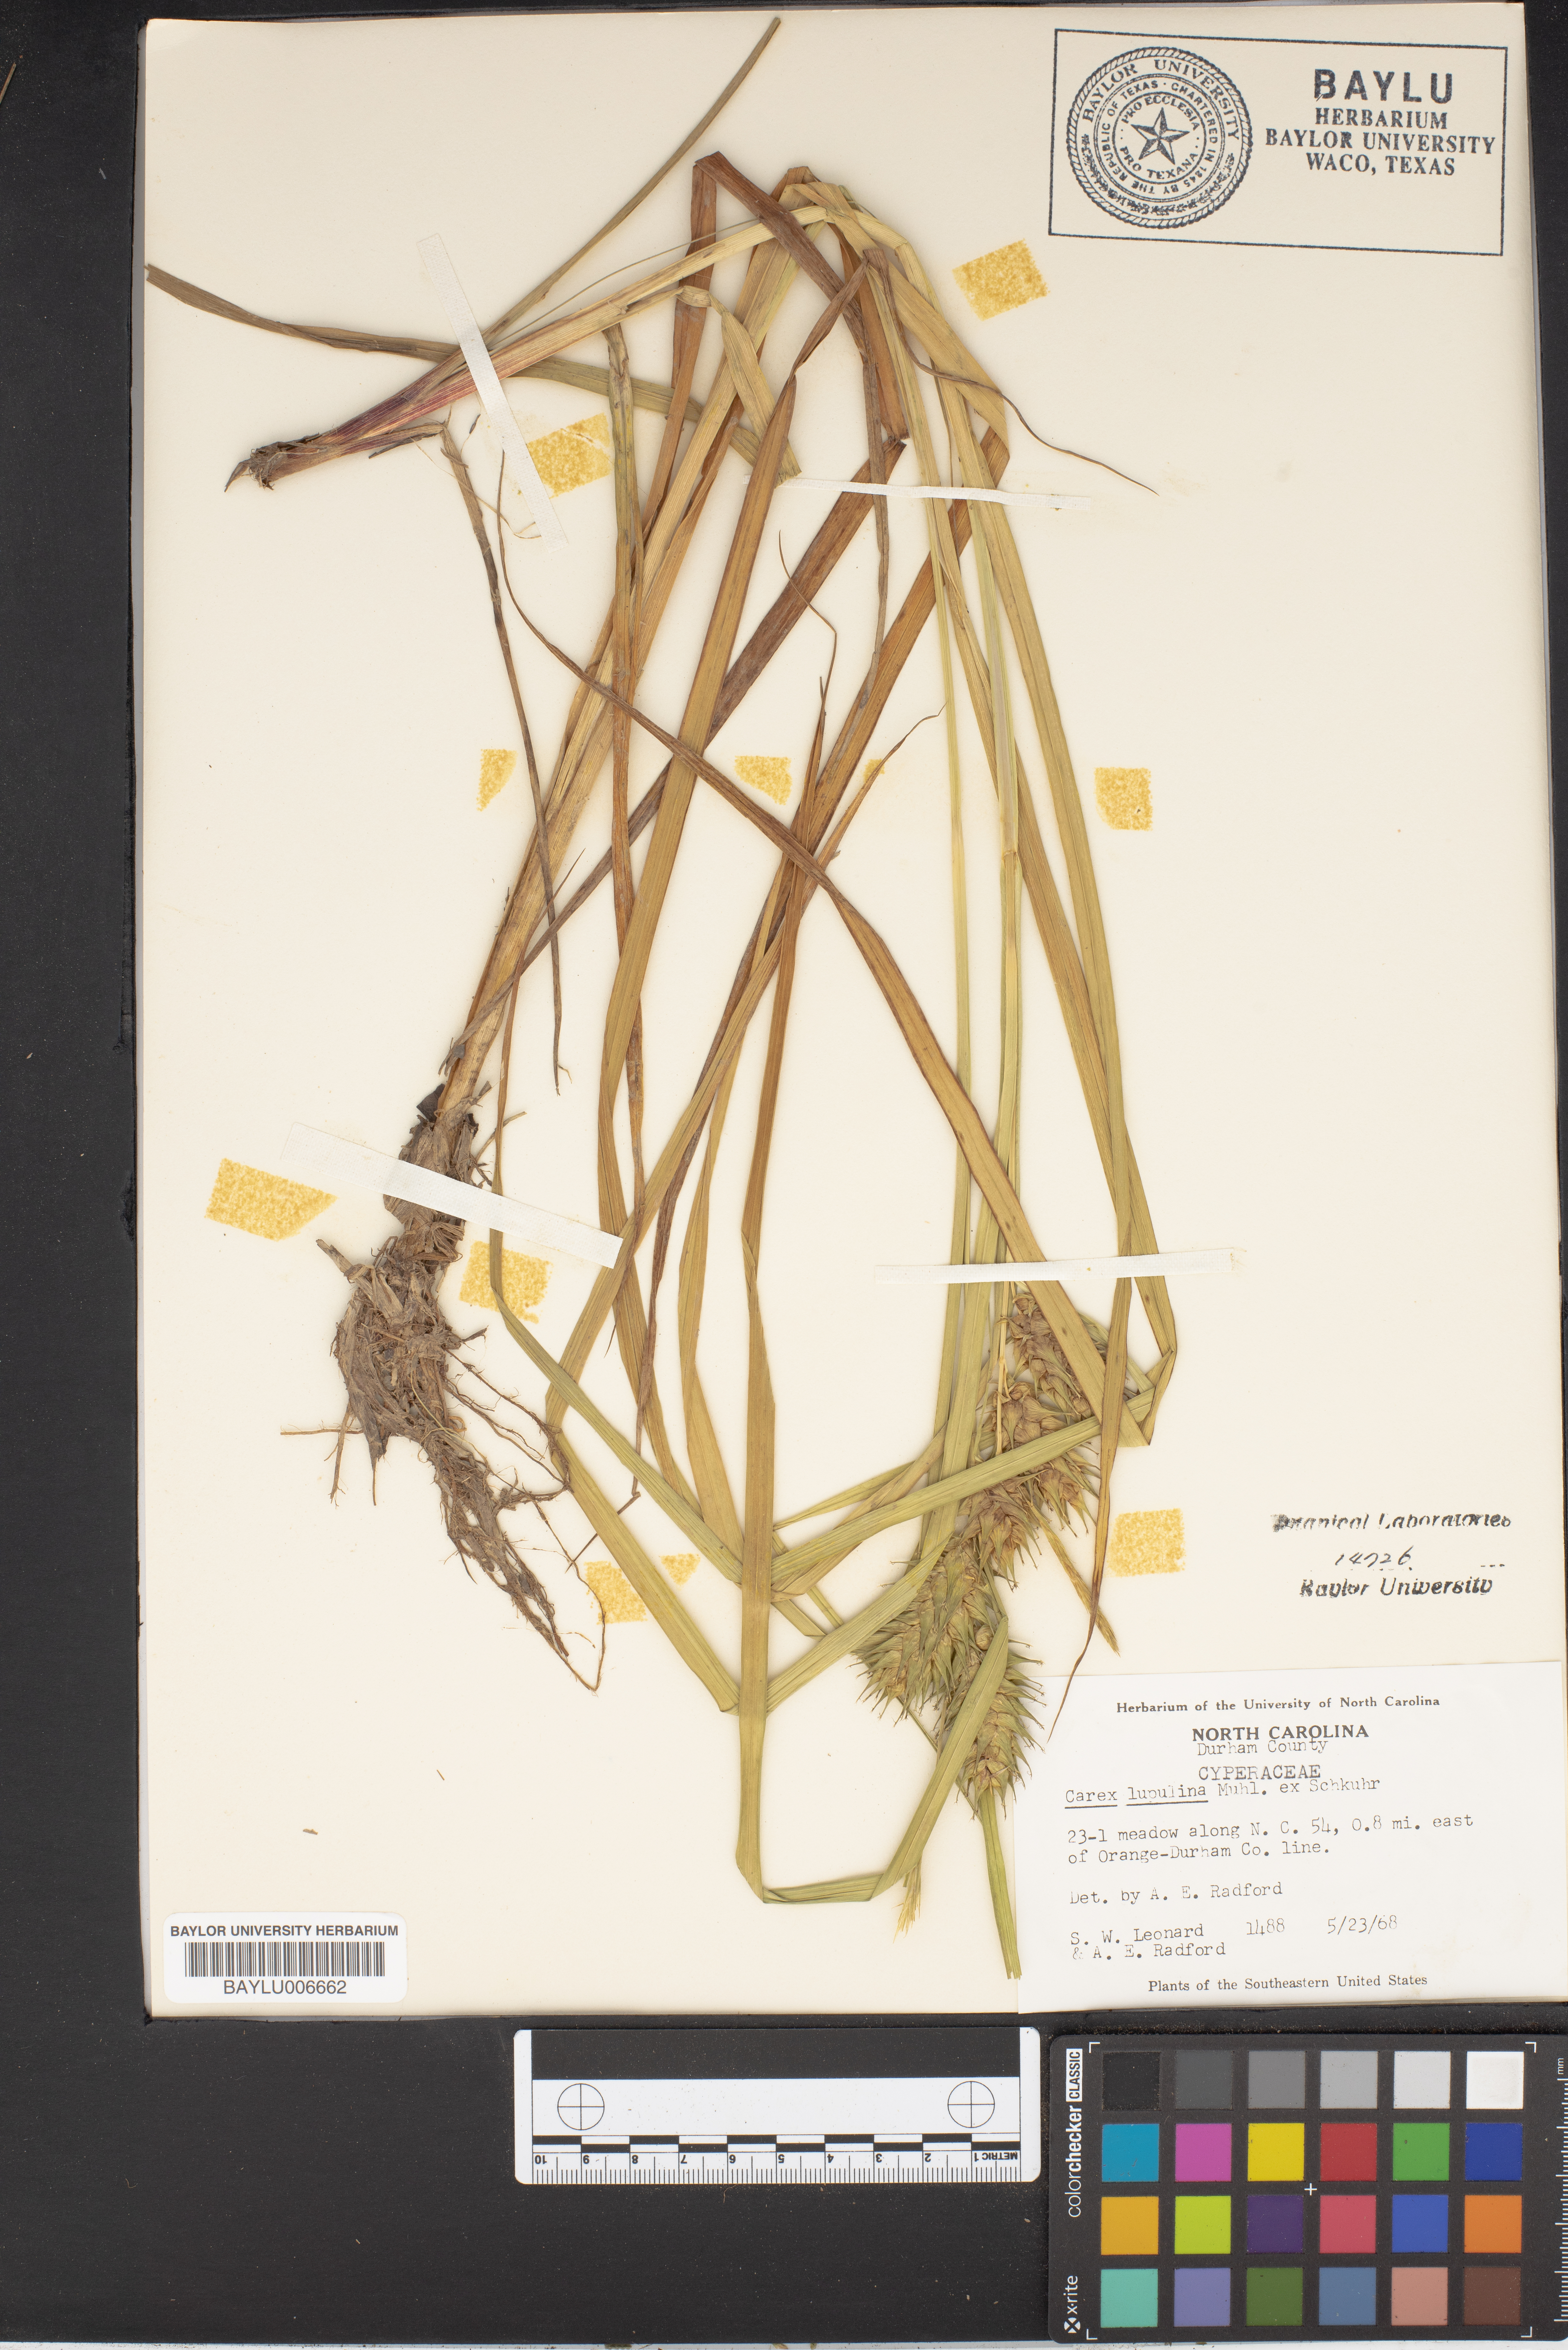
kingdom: Plantae
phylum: Tracheophyta
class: Liliopsida
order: Poales
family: Cyperaceae
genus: Carex
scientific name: Carex lupulina
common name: Hop sedge
